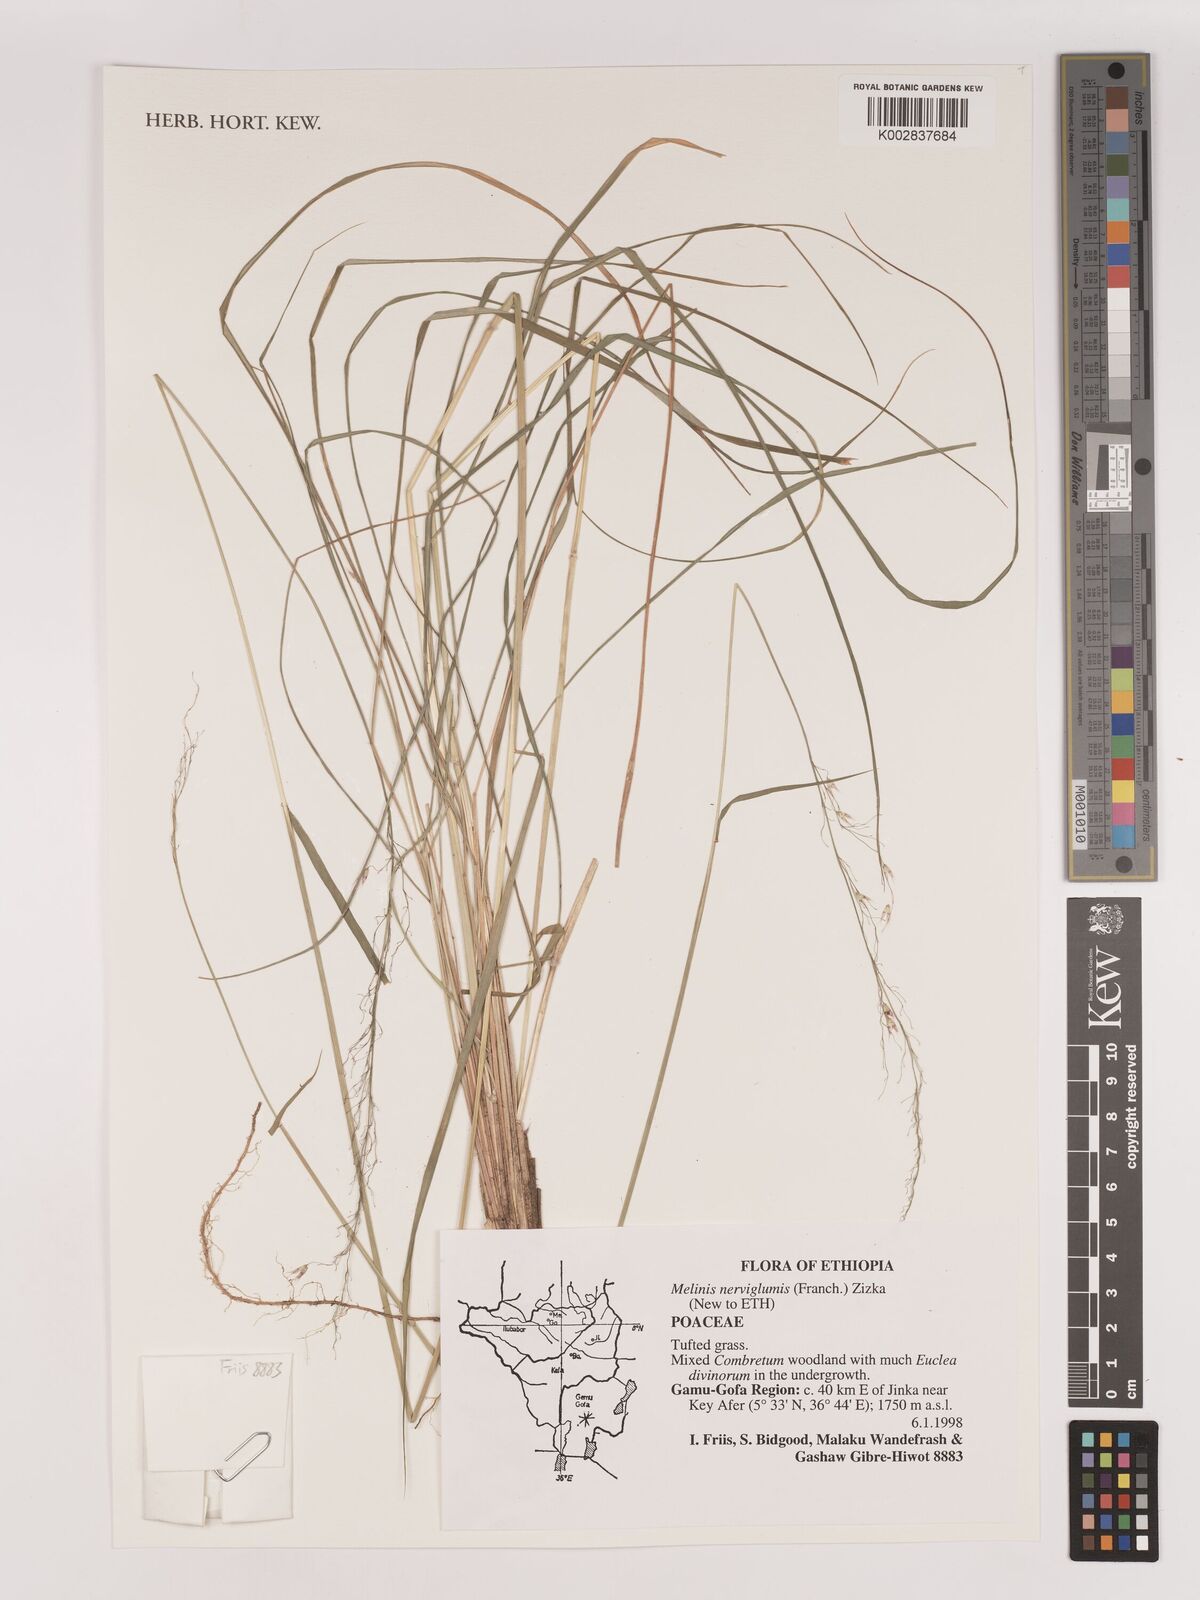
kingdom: Plantae
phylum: Tracheophyta
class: Liliopsida
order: Poales
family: Poaceae
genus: Melinis
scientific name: Melinis nerviglumis
